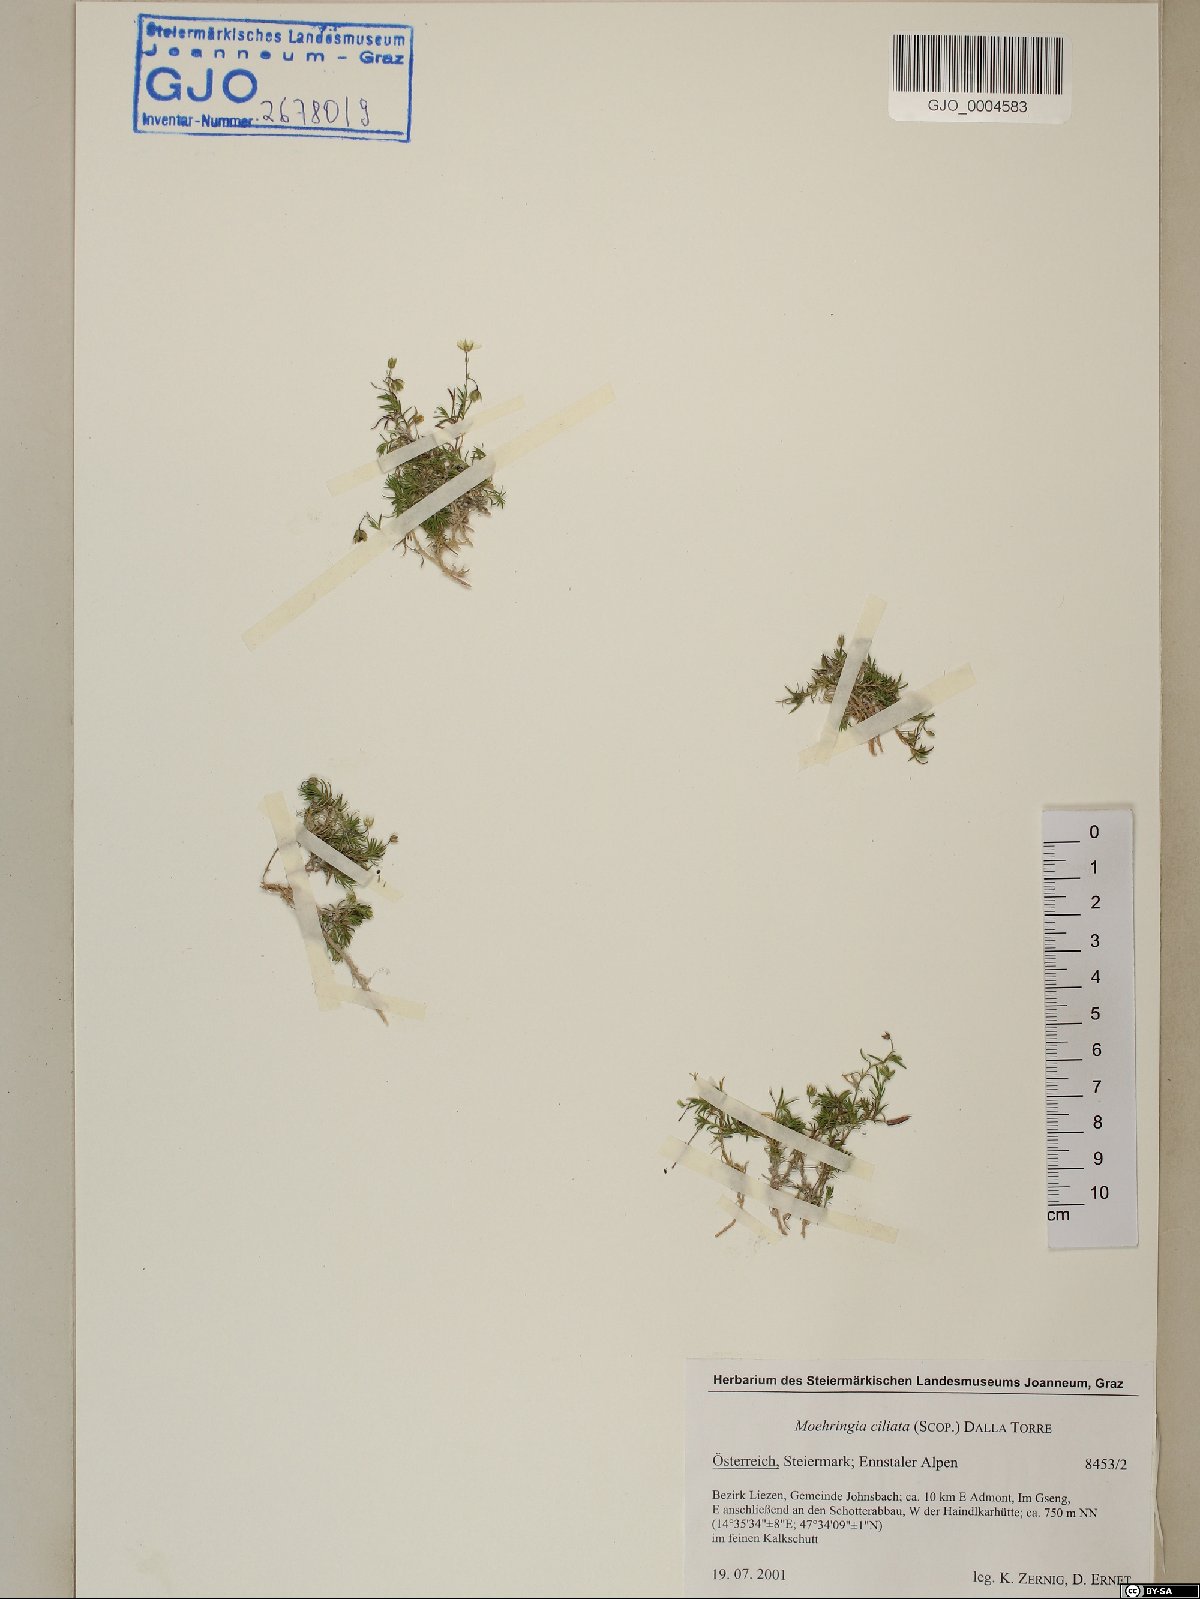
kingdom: Plantae
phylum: Tracheophyta
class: Magnoliopsida
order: Caryophyllales
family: Caryophyllaceae
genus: Moehringia
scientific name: Moehringia ciliata
